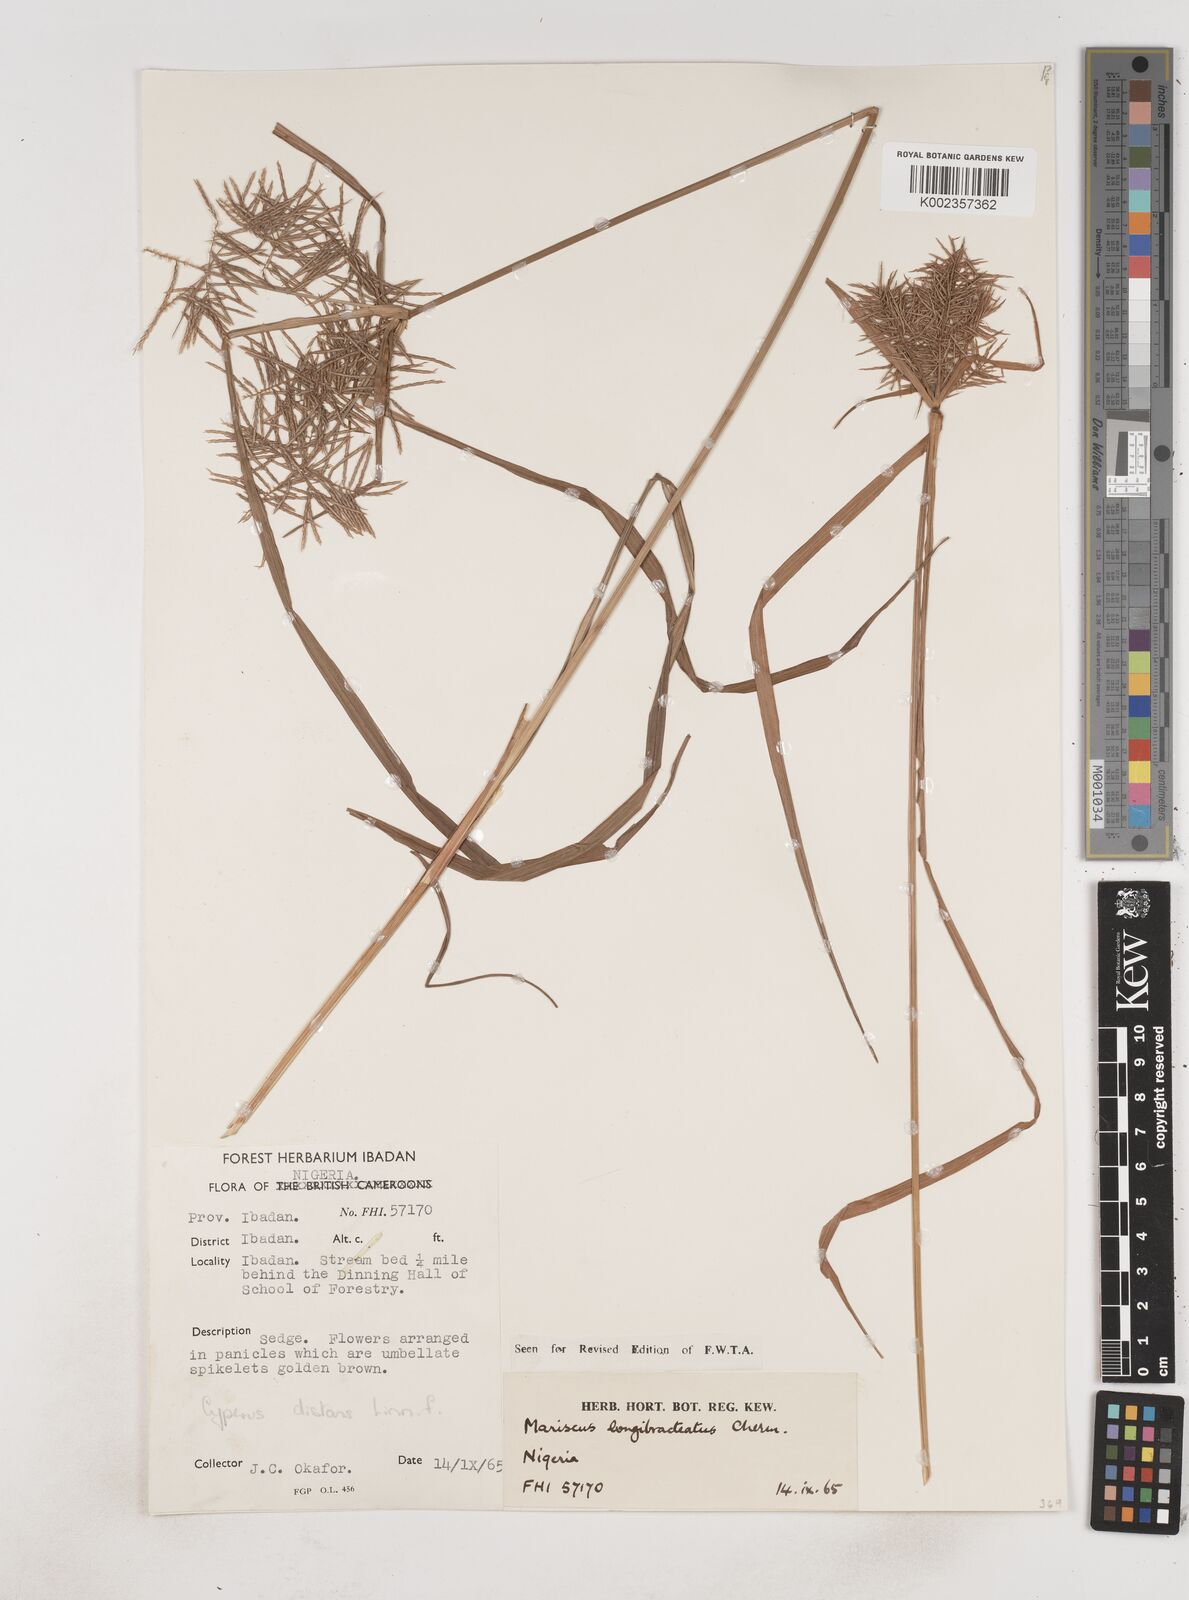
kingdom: Plantae
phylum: Tracheophyta
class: Liliopsida
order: Poales
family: Cyperaceae
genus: Cyperus
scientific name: Cyperus distans
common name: Slender cyperus
